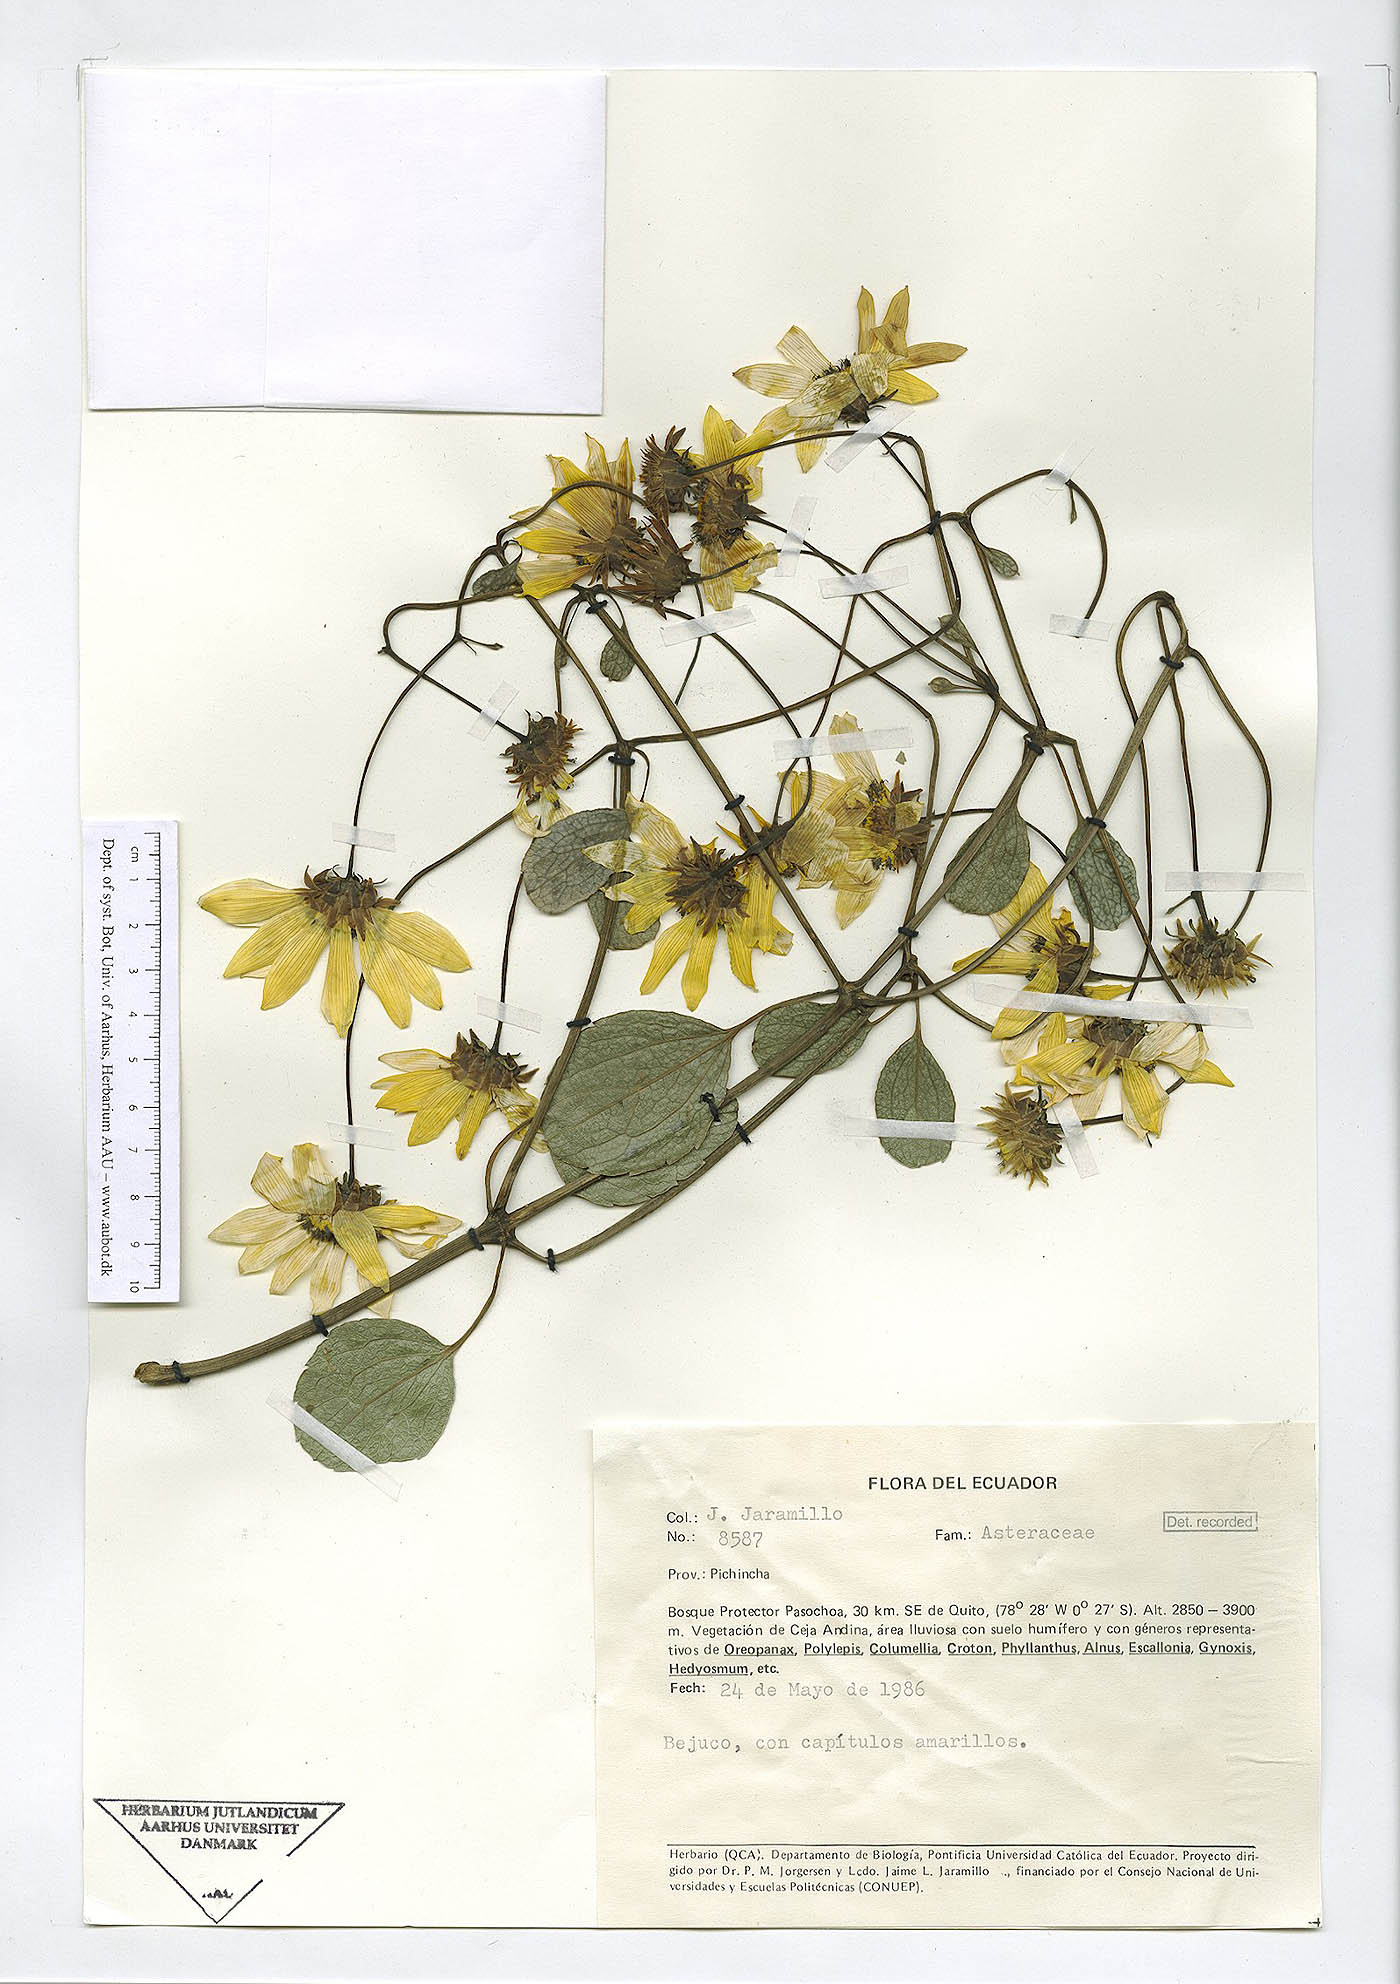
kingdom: Plantae
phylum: Tracheophyta
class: Magnoliopsida
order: Asterales
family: Asteraceae
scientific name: Asteraceae
